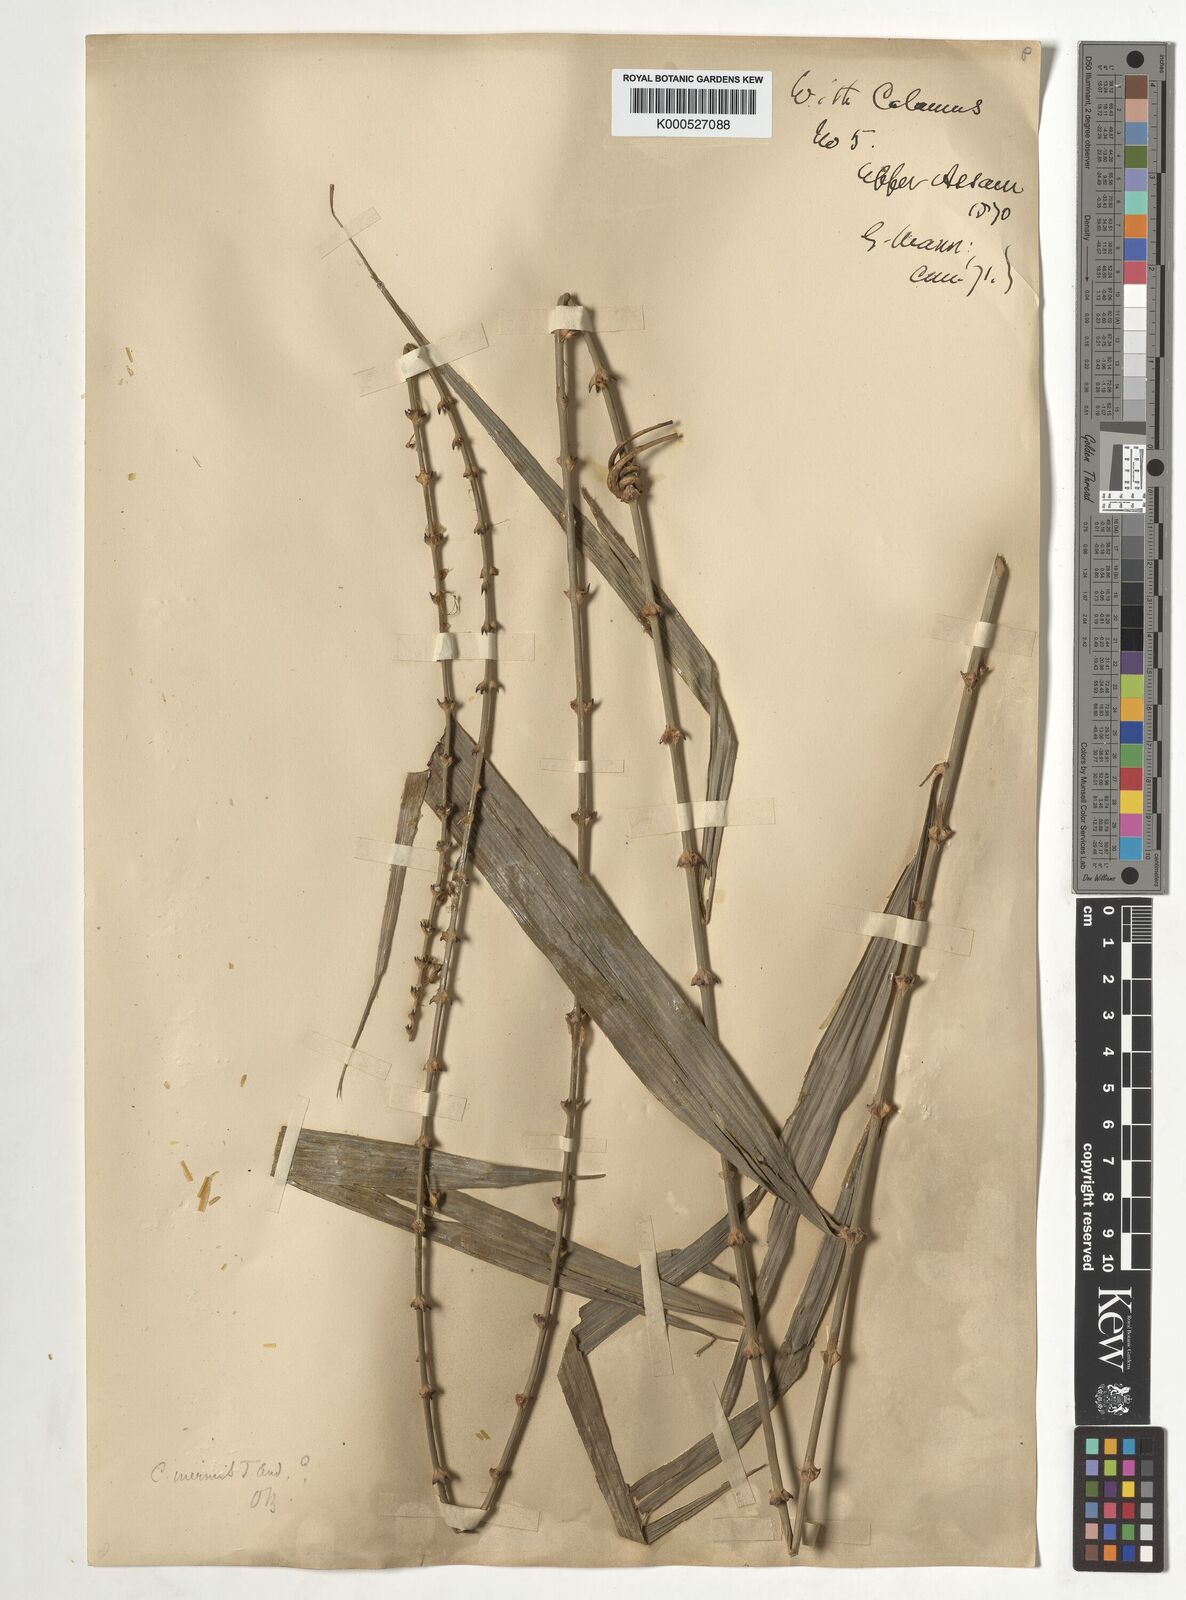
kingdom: Plantae
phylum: Tracheophyta
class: Liliopsida
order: Arecales
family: Arecaceae
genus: Calamus
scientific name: Calamus latifolius
